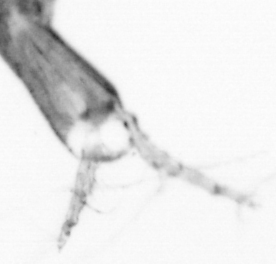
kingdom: Animalia
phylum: Arthropoda
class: Copepoda
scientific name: Copepoda
